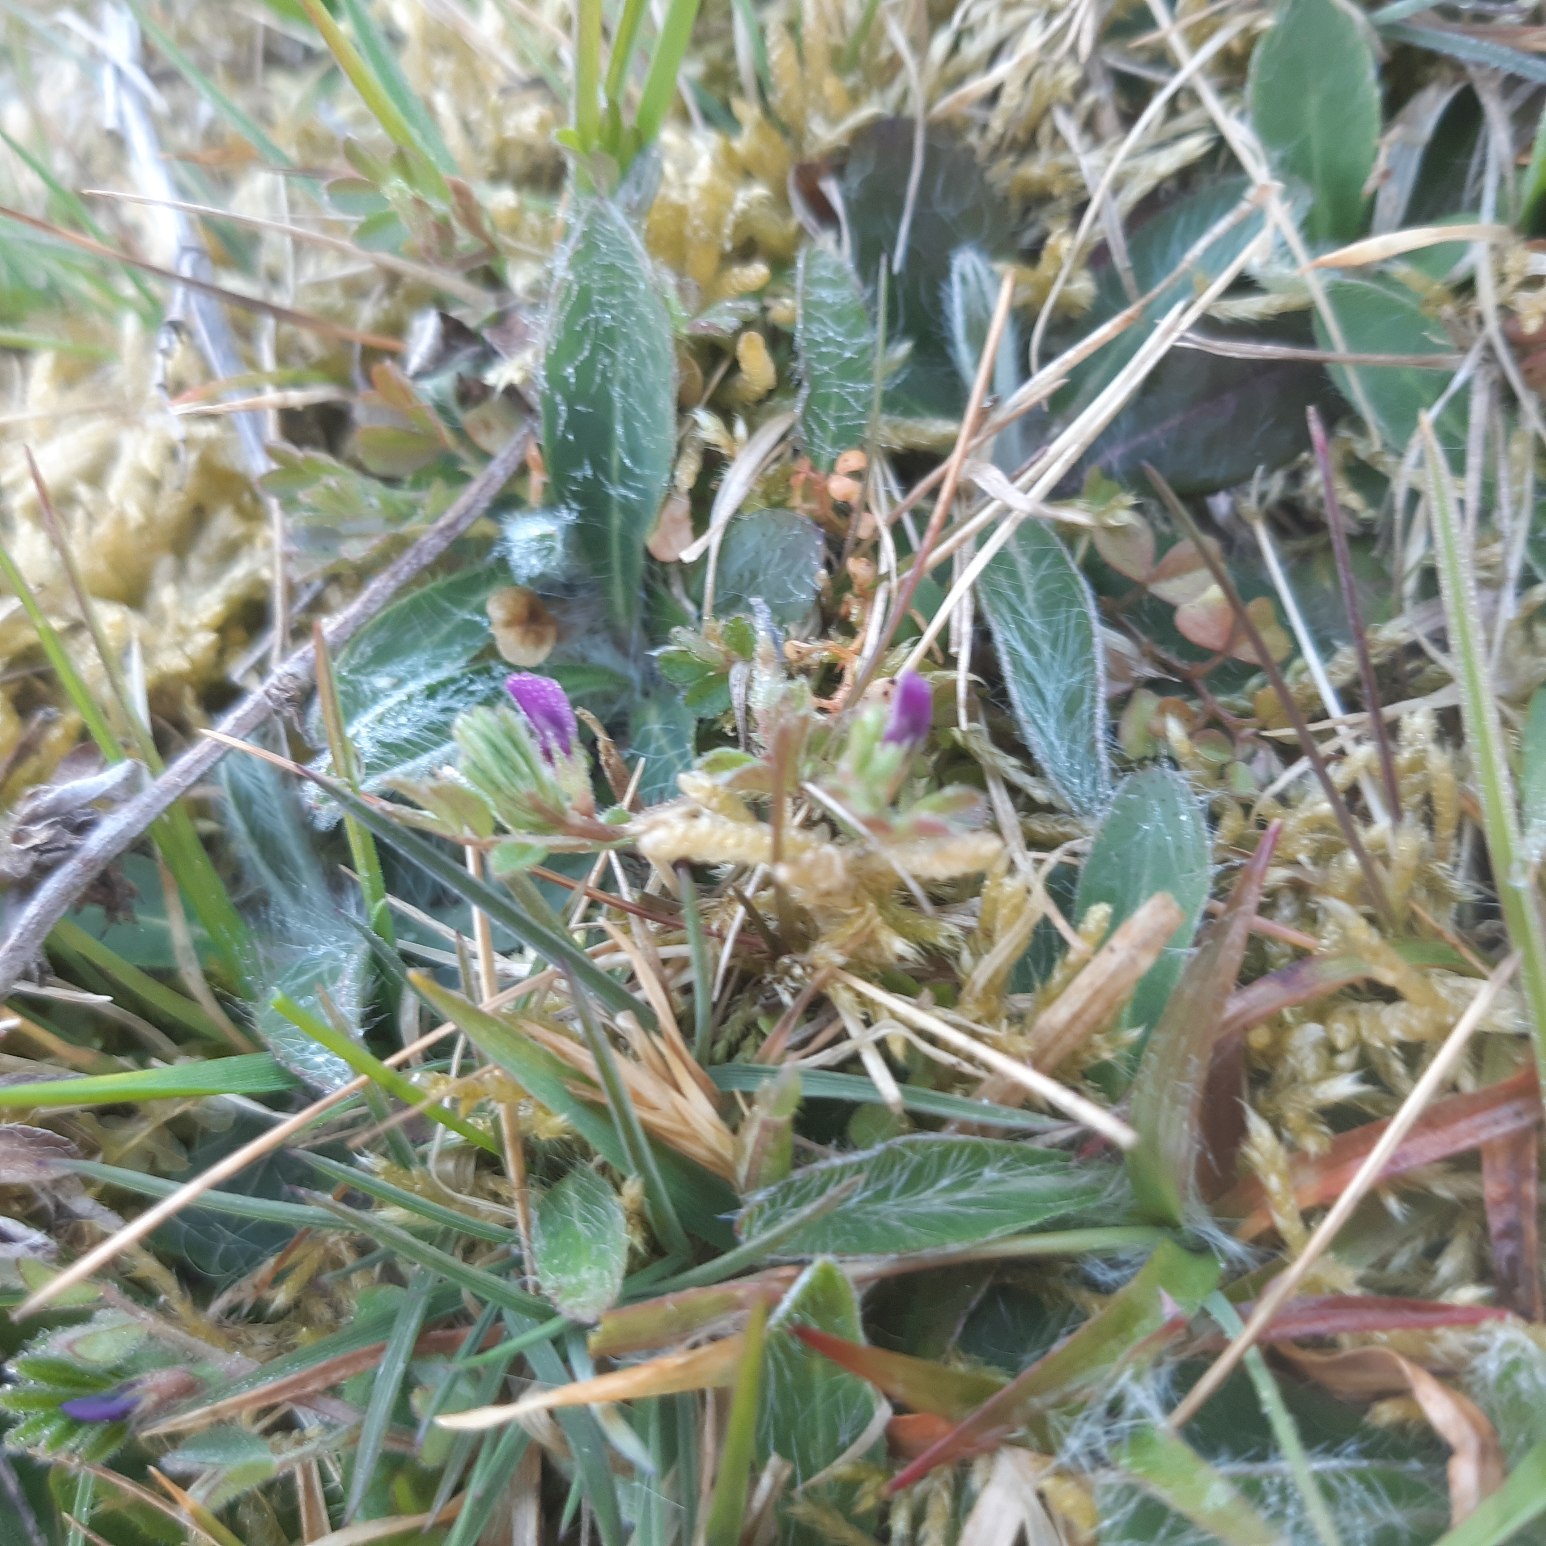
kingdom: Plantae
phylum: Tracheophyta
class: Magnoliopsida
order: Fabales
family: Fabaceae
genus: Vicia
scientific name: Vicia lathyroides
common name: Vår-vikke
